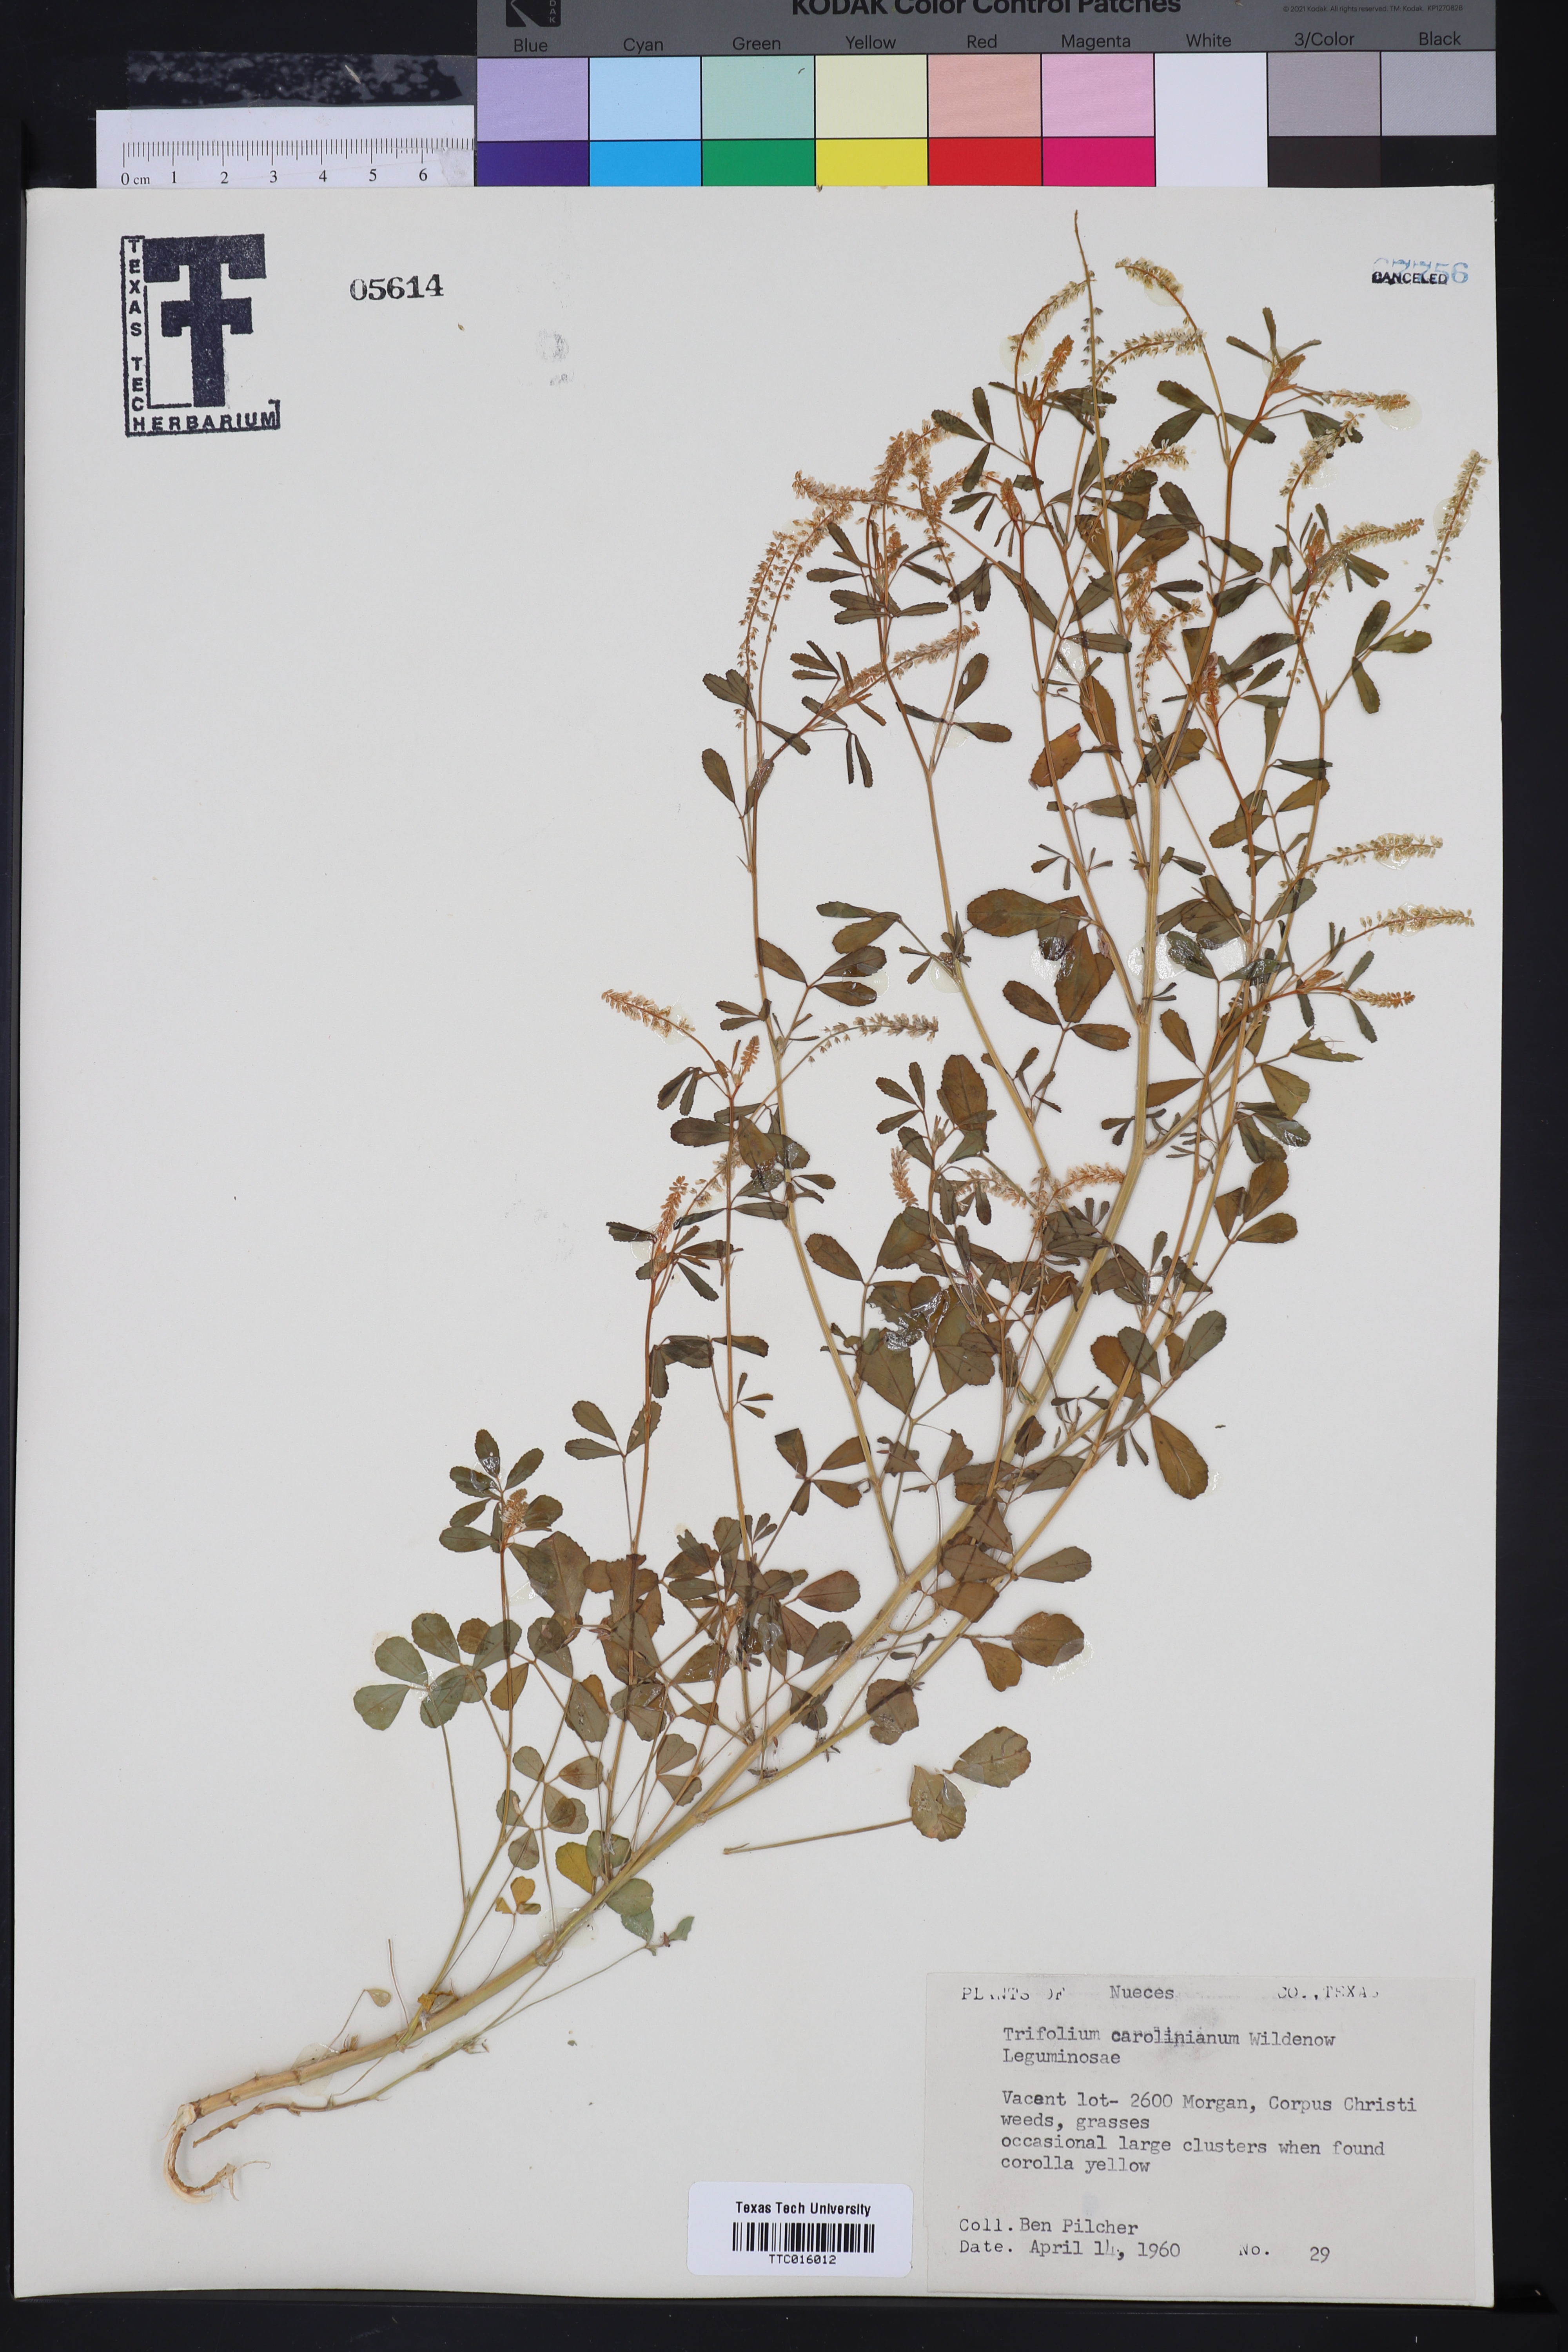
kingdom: Plantae
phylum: Tracheophyta
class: Magnoliopsida
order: Fabales
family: Fabaceae
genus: Trifolium
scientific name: Trifolium carolinianum
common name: Wild white clover
